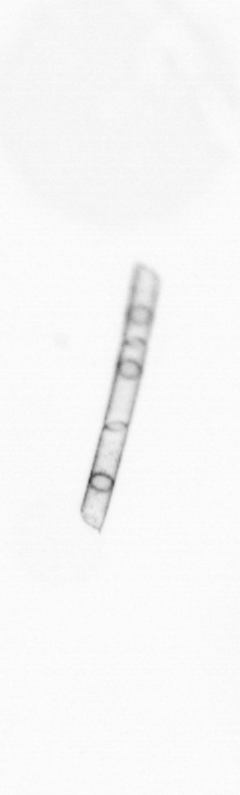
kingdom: Chromista
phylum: Ochrophyta
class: Bacillariophyceae
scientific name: Bacillariophyceae
